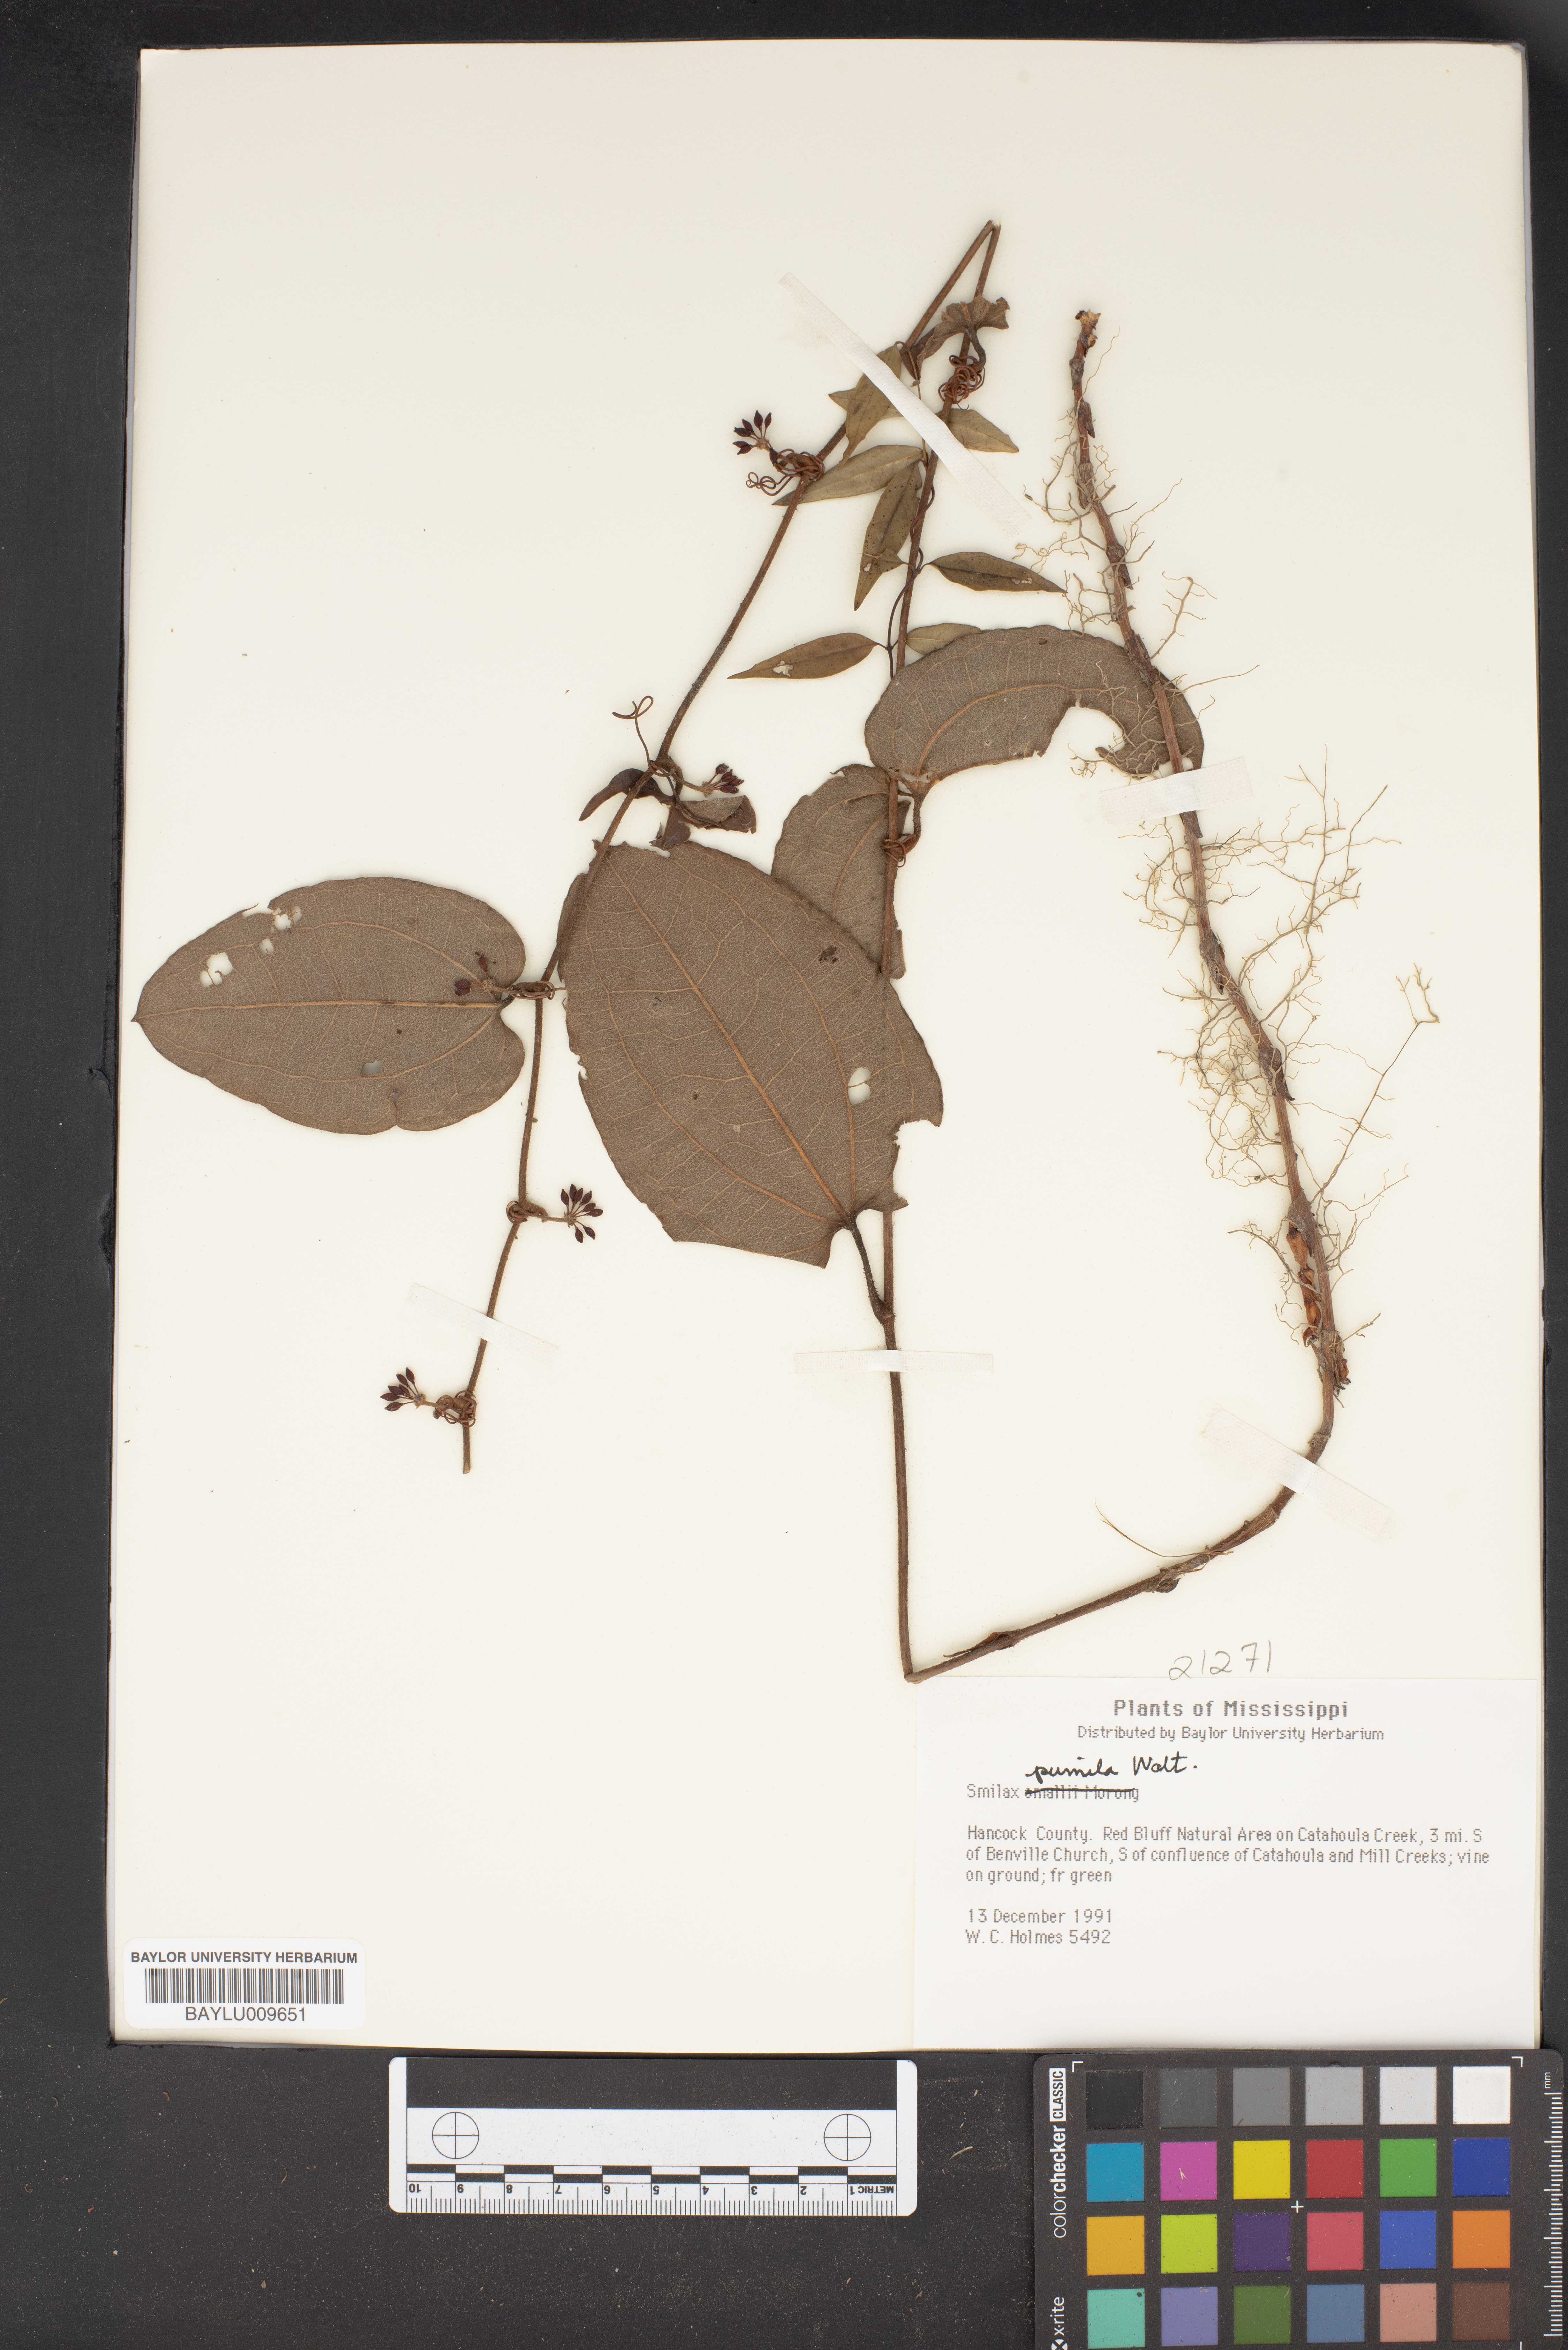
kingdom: Plantae
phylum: Tracheophyta
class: Liliopsida
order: Liliales
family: Smilacaceae
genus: Smilax
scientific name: Smilax pumila
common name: Sarsaparilla-vine
